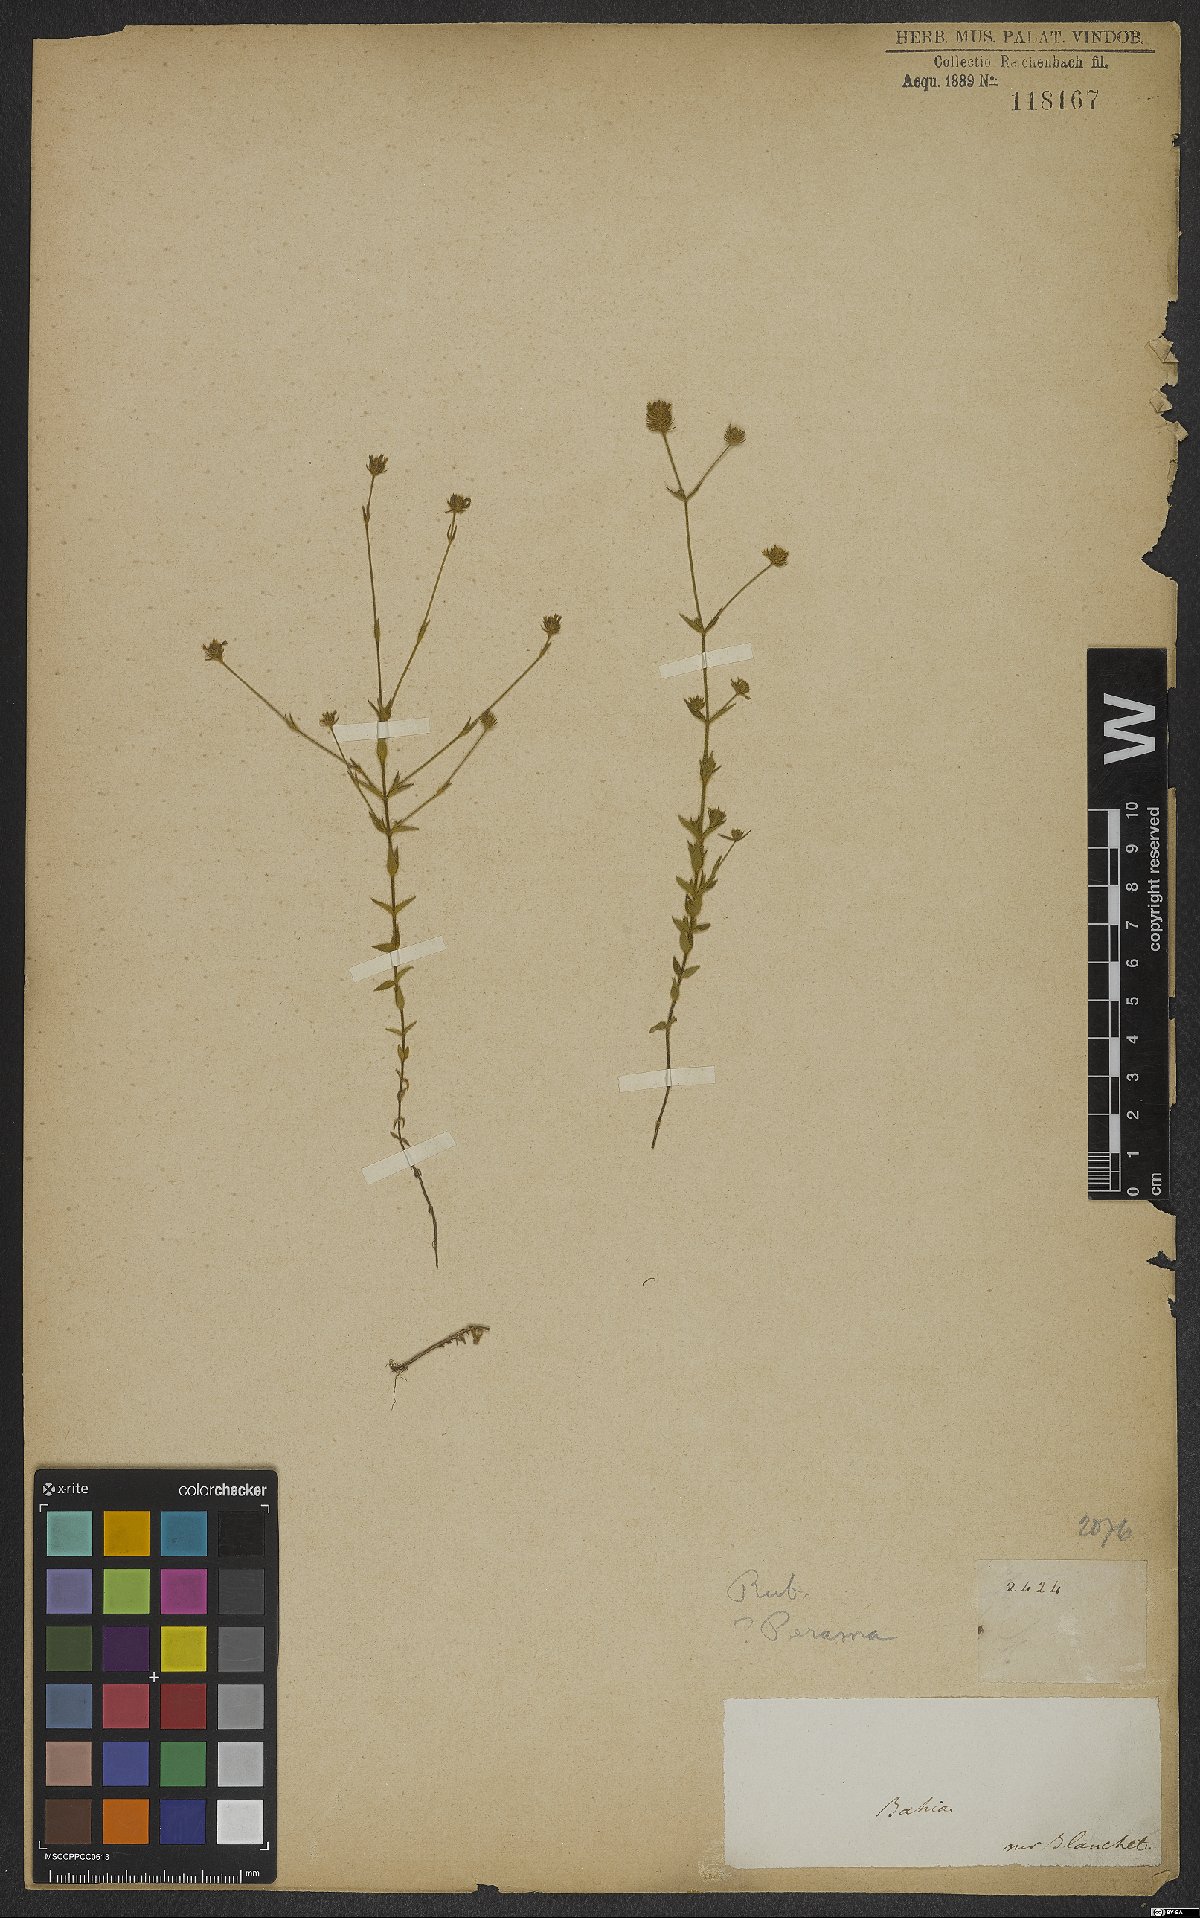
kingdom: Plantae
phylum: Tracheophyta
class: Magnoliopsida
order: Gentianales
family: Rubiaceae
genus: Perama
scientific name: Perama
